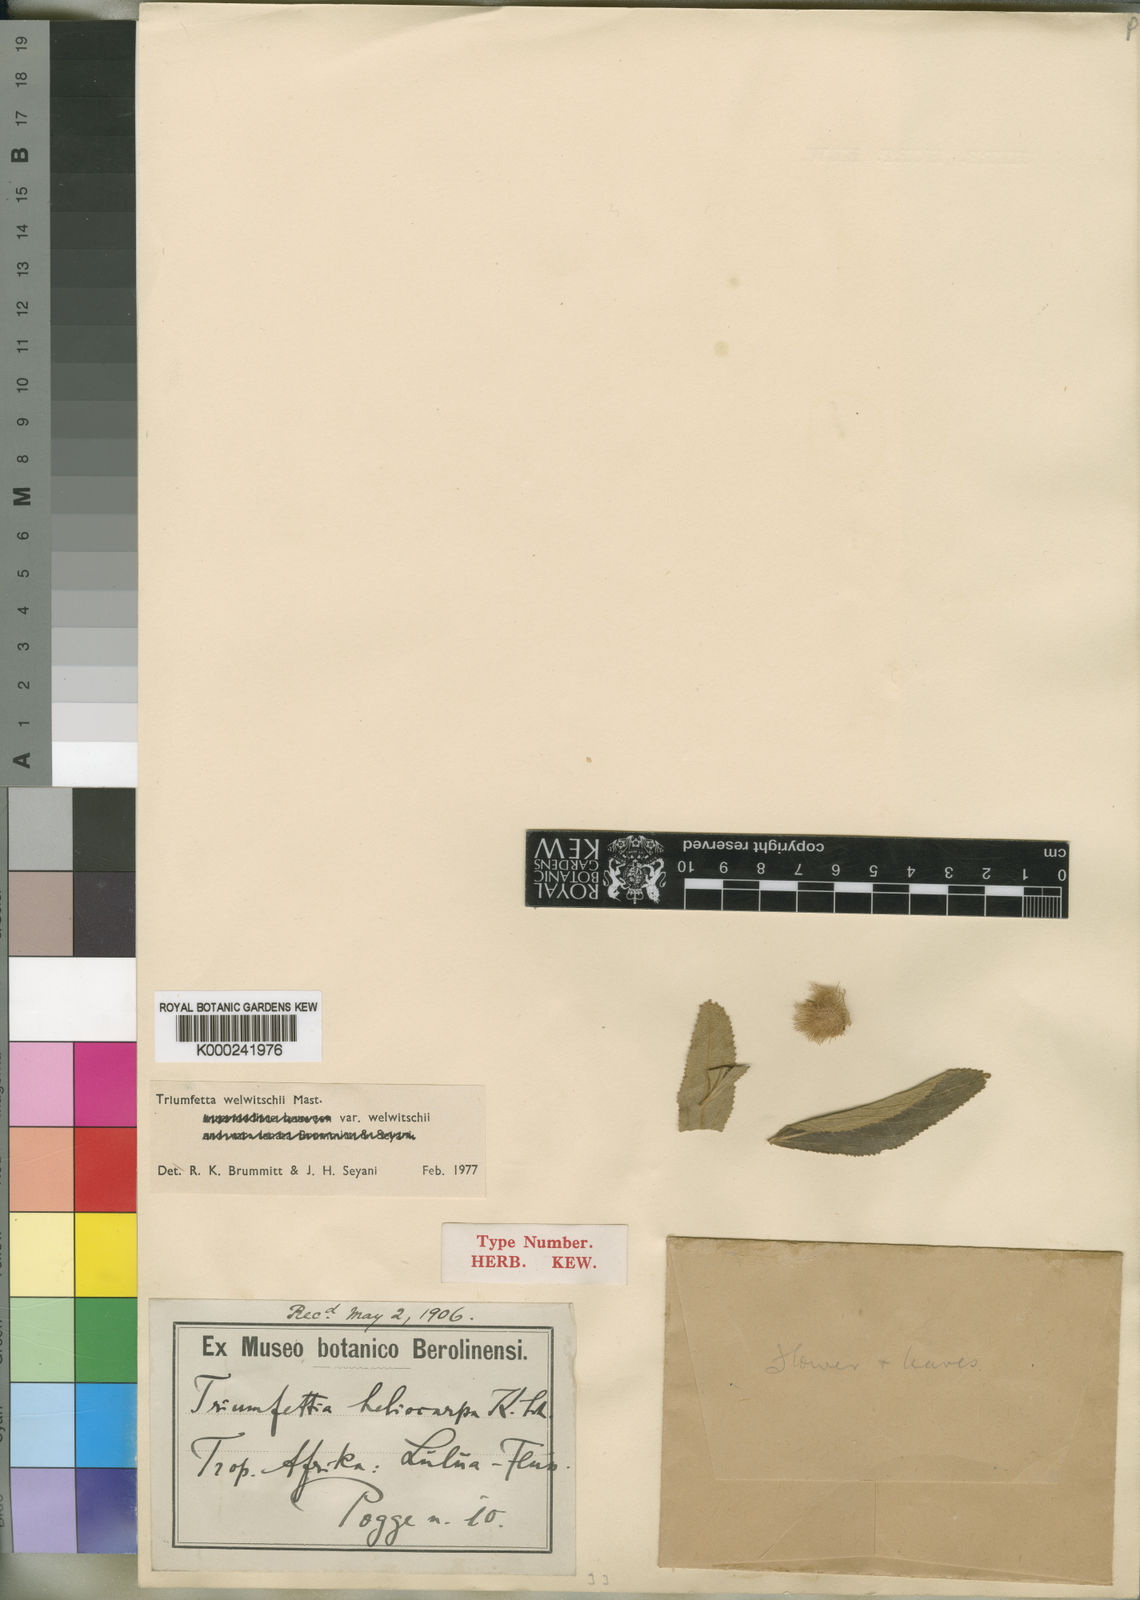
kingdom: Plantae
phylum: Tracheophyta
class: Magnoliopsida
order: Malvales
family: Malvaceae
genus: Triumfetta
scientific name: Triumfetta welwitschii
